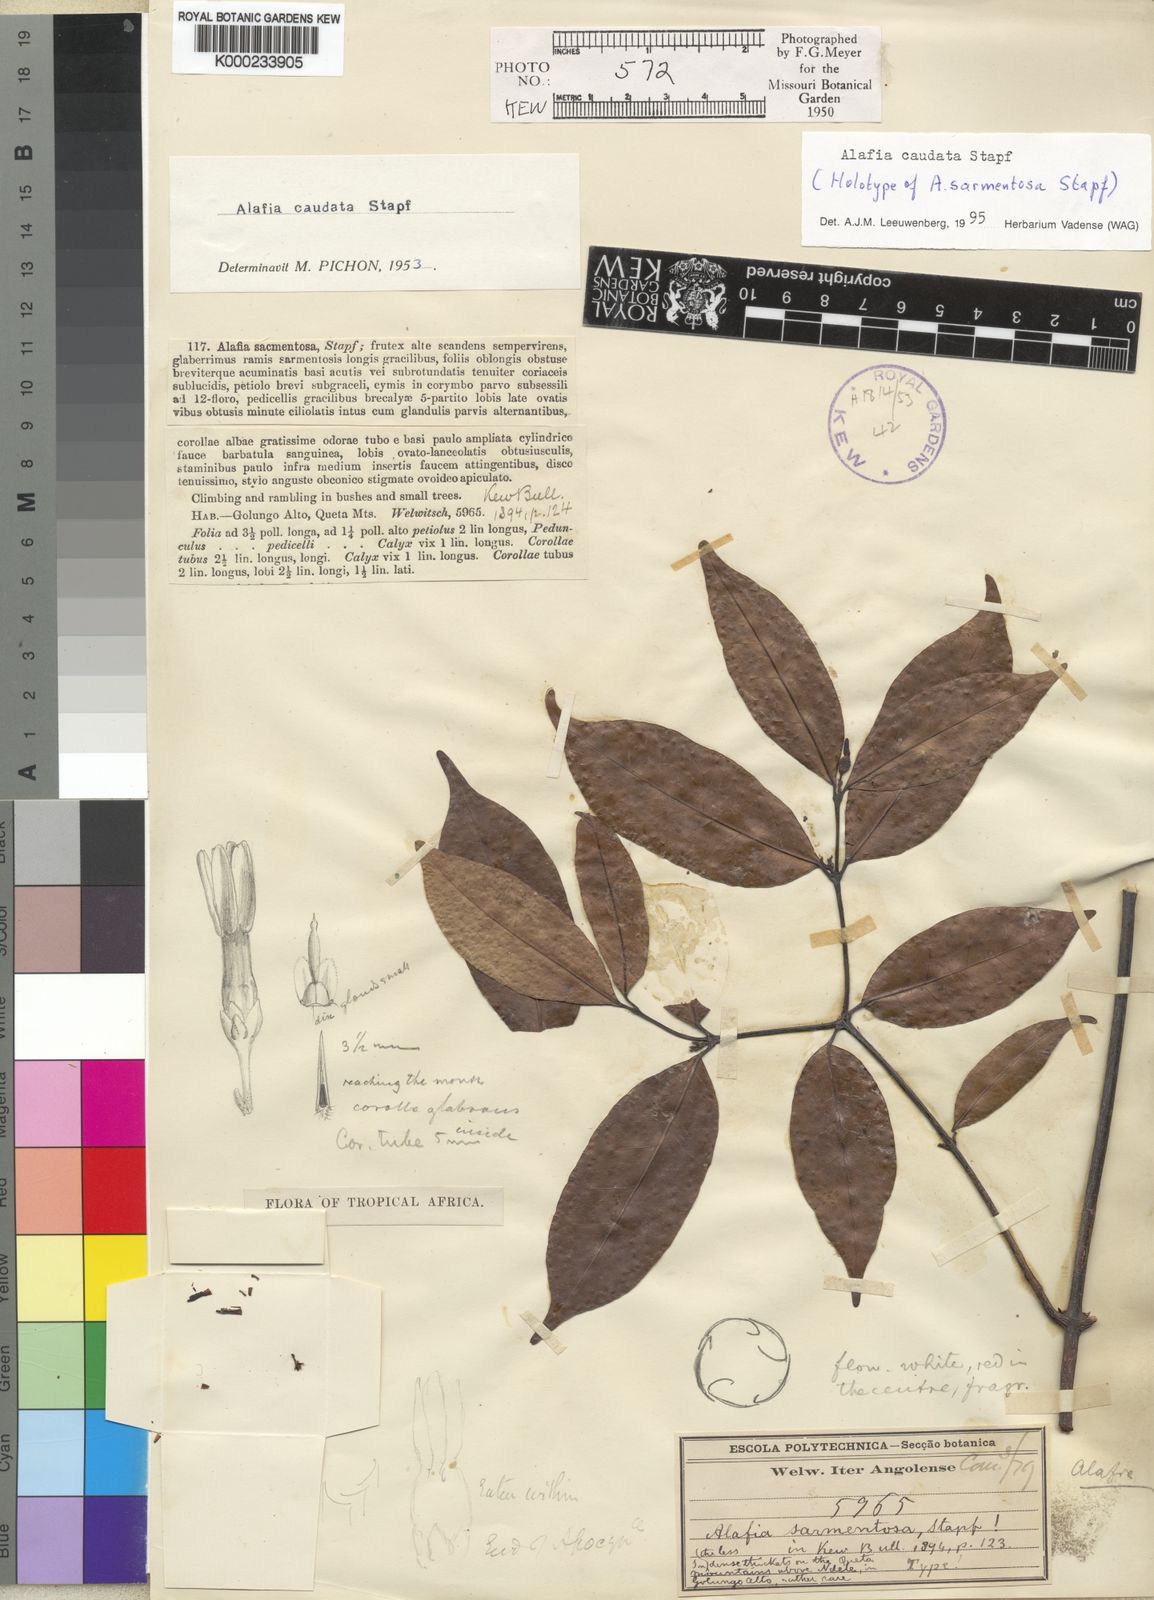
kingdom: Plantae
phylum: Tracheophyta
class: Magnoliopsida
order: Gentianales
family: Apocynaceae
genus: Alafia
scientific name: Alafia caudata
